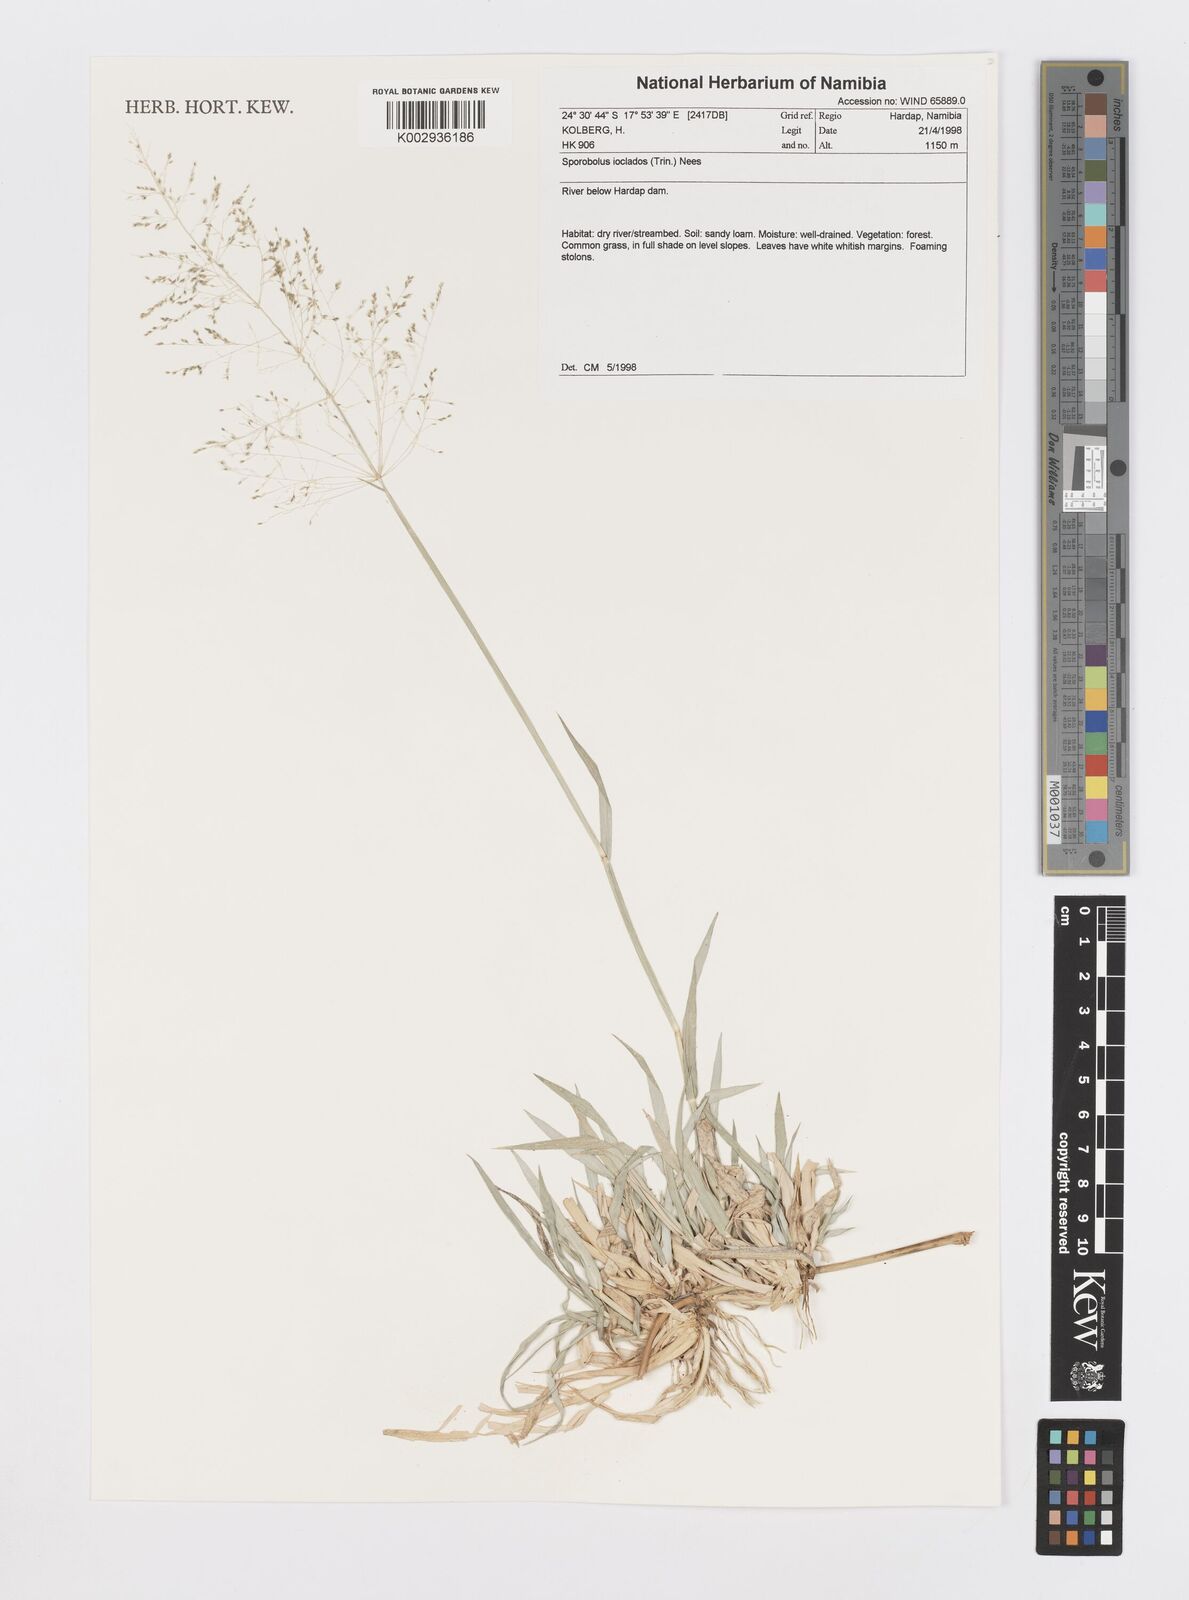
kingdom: Plantae
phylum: Tracheophyta
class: Liliopsida
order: Poales
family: Poaceae
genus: Sporobolus
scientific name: Sporobolus ioclados
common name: Pan dropseed
